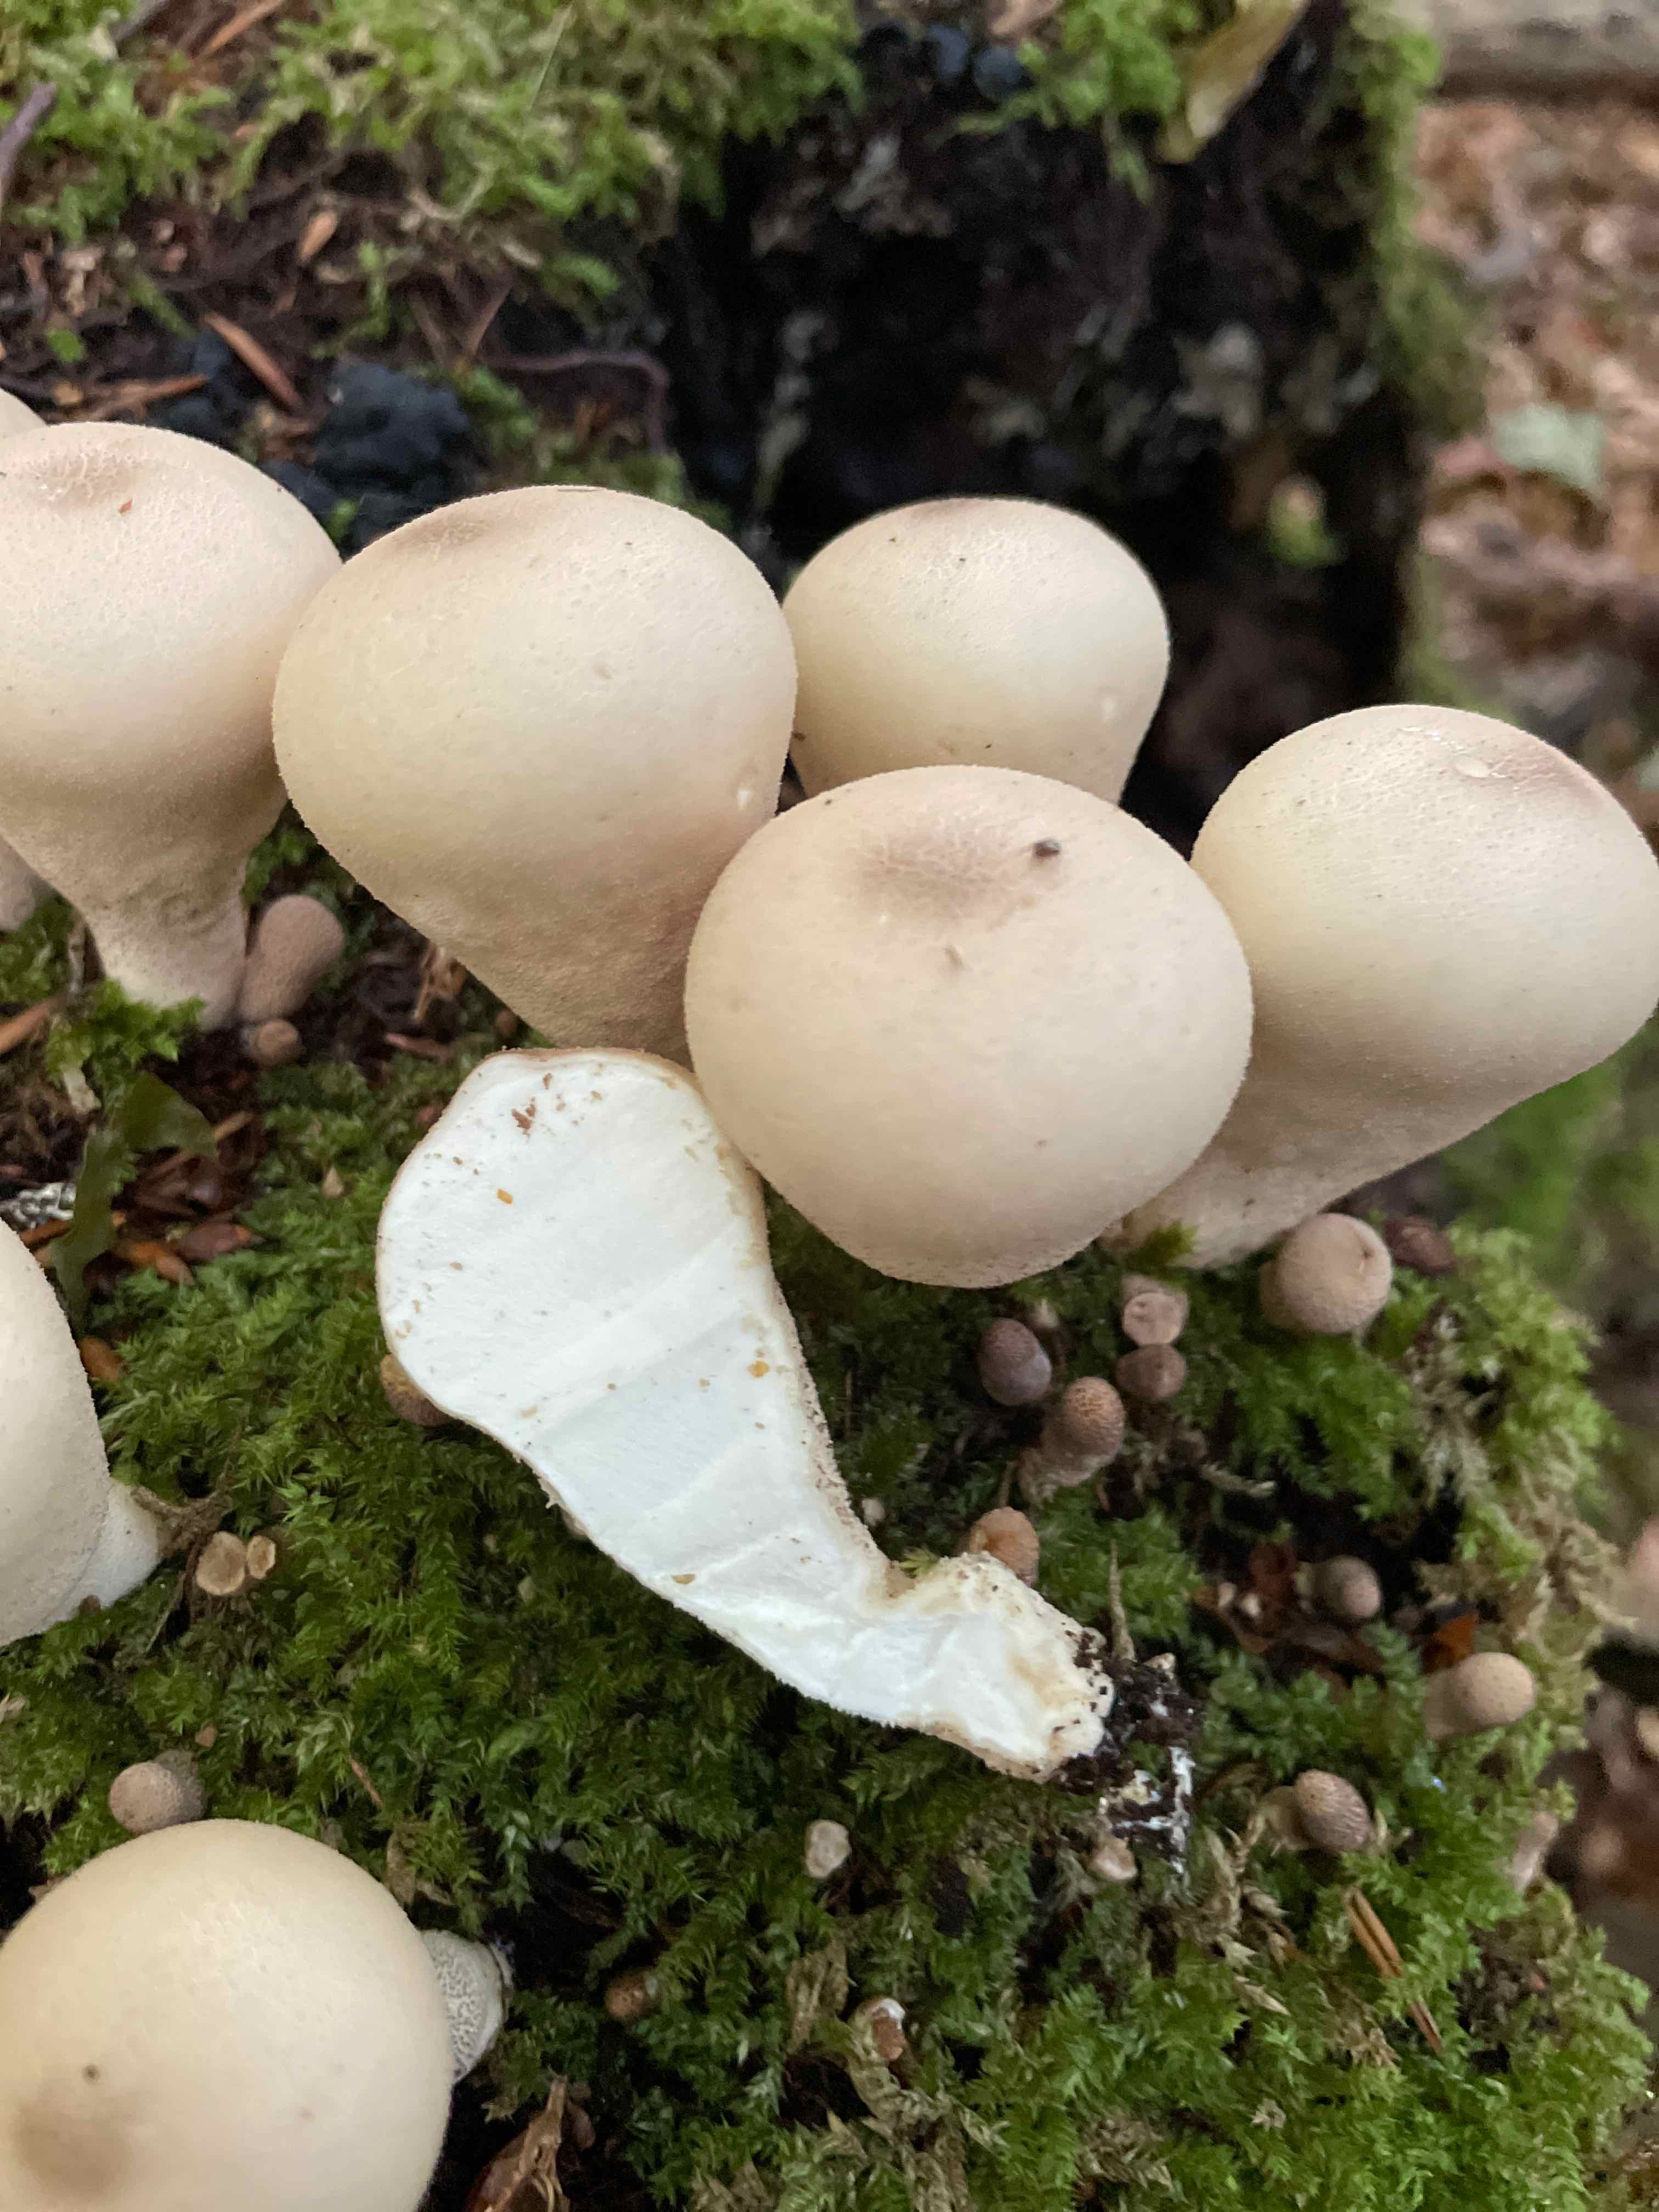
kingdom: Fungi
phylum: Basidiomycota
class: Agaricomycetes
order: Agaricales
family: Lycoperdaceae
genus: Apioperdon
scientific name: Apioperdon pyriforme
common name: pære-støvbold
